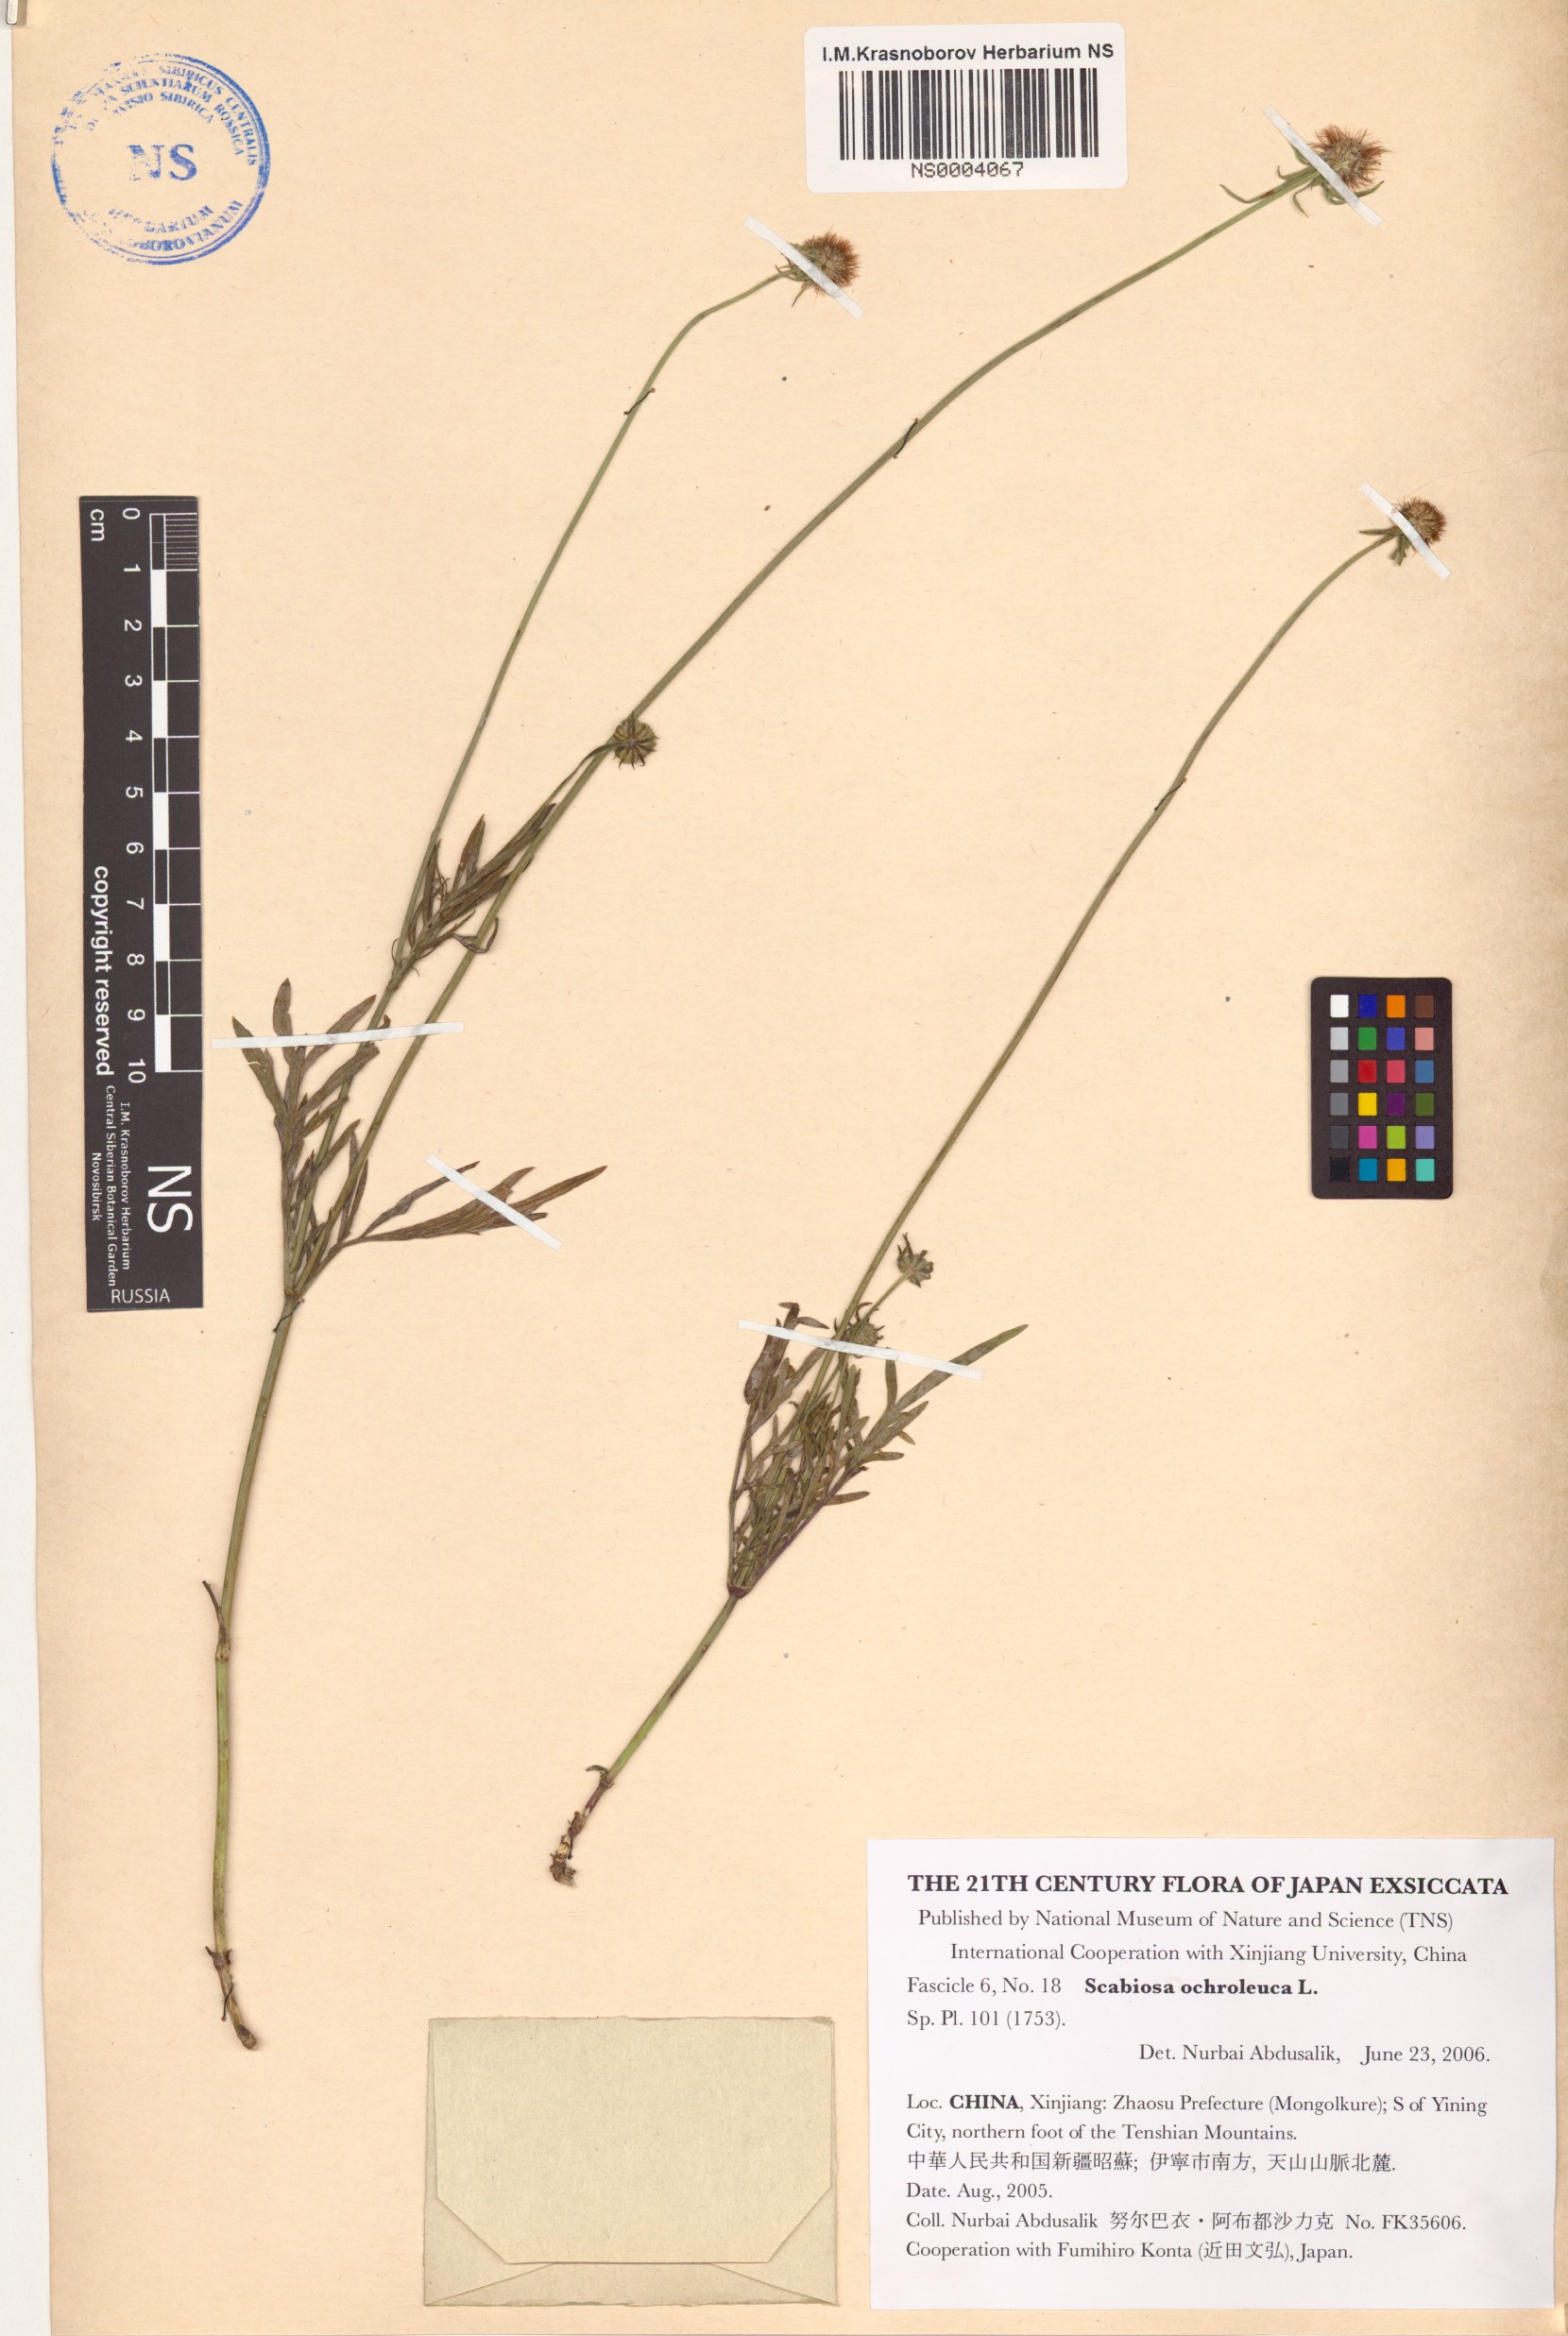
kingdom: Plantae
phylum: Tracheophyta
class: Magnoliopsida
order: Dipsacales
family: Caprifoliaceae
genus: Scabiosa
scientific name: Scabiosa ochroleuca
